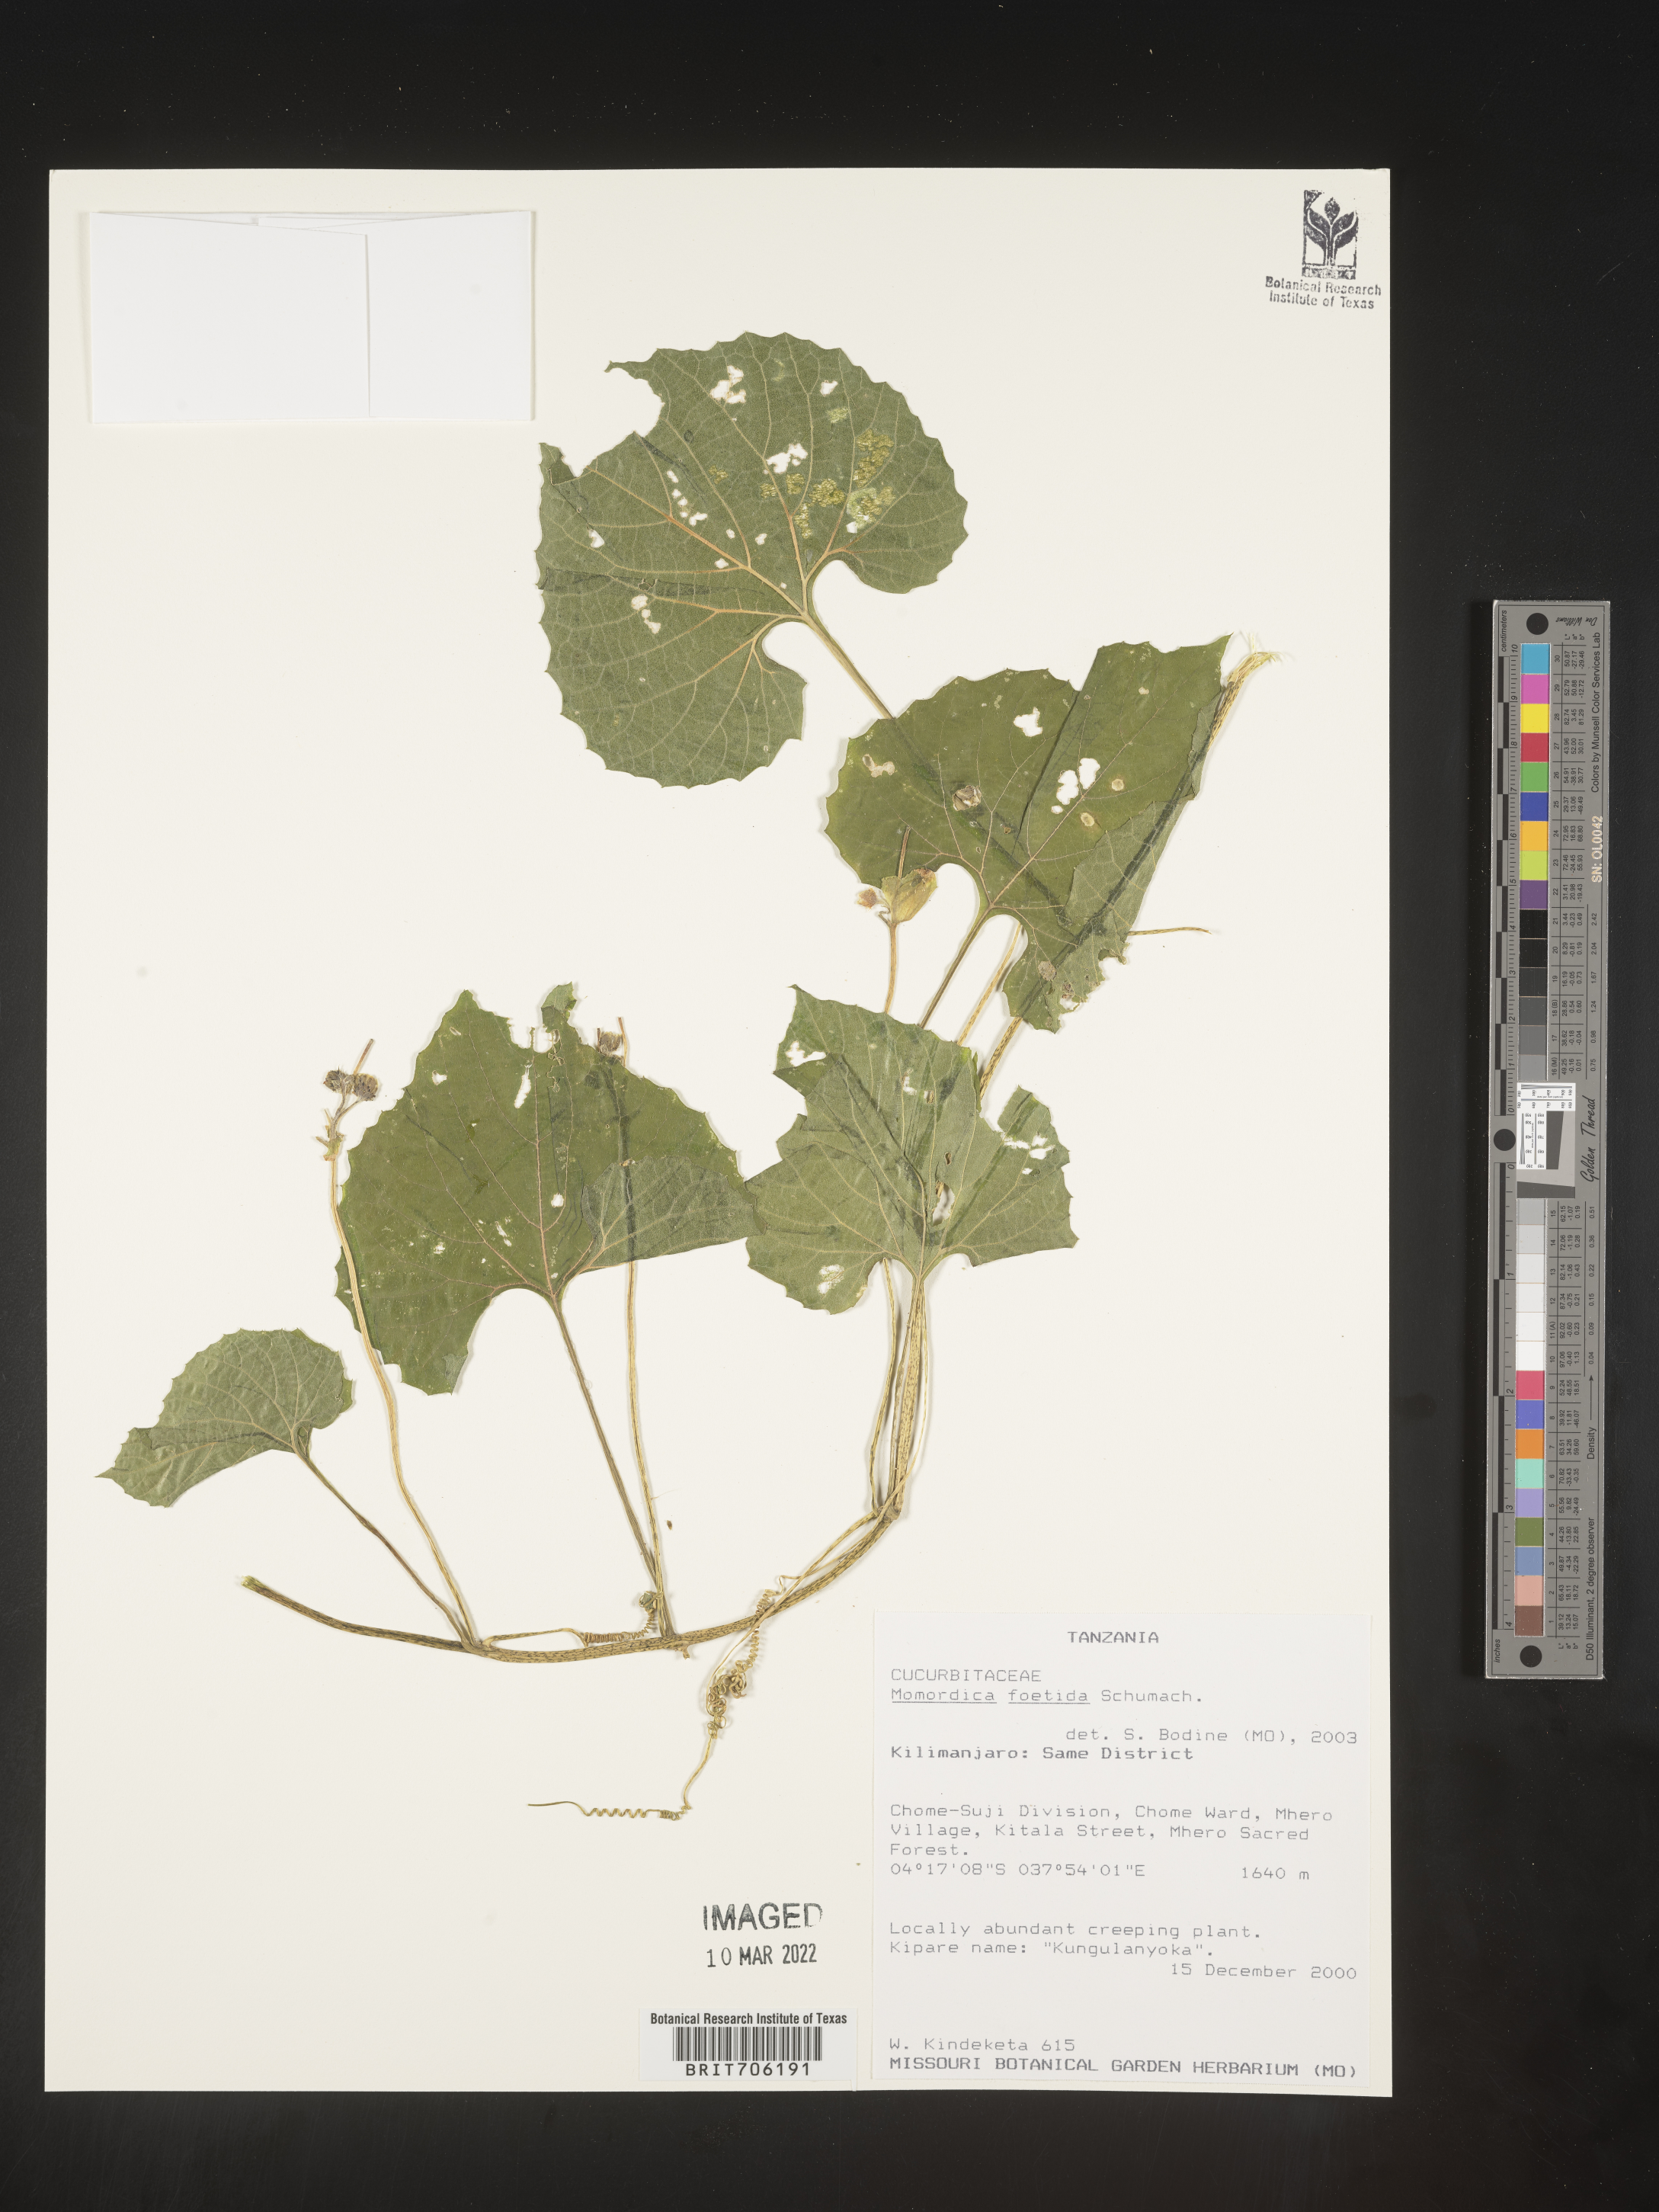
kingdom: Plantae
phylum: Tracheophyta
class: Magnoliopsida
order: Cucurbitales
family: Cucurbitaceae
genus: Momordica
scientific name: Momordica
